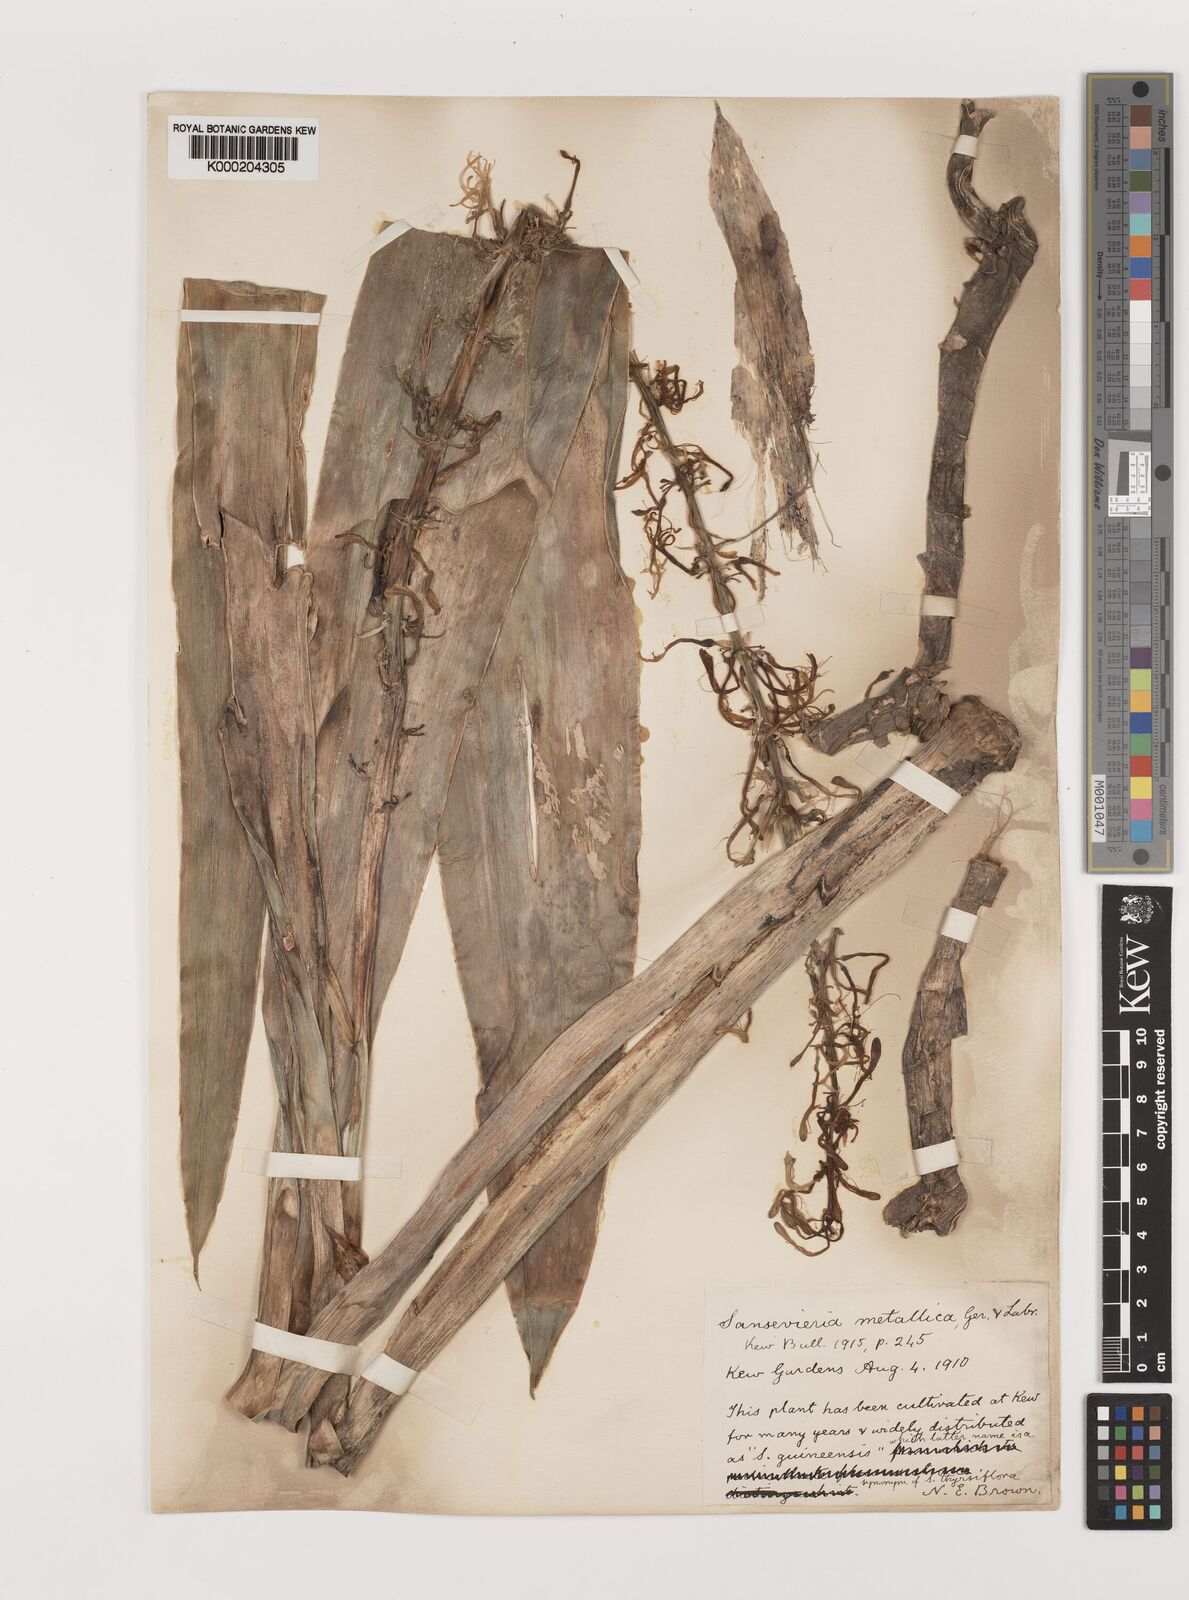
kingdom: Plantae
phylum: Tracheophyta
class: Liliopsida
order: Asparagales
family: Asparagaceae
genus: Dracaena
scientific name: Dracaena
